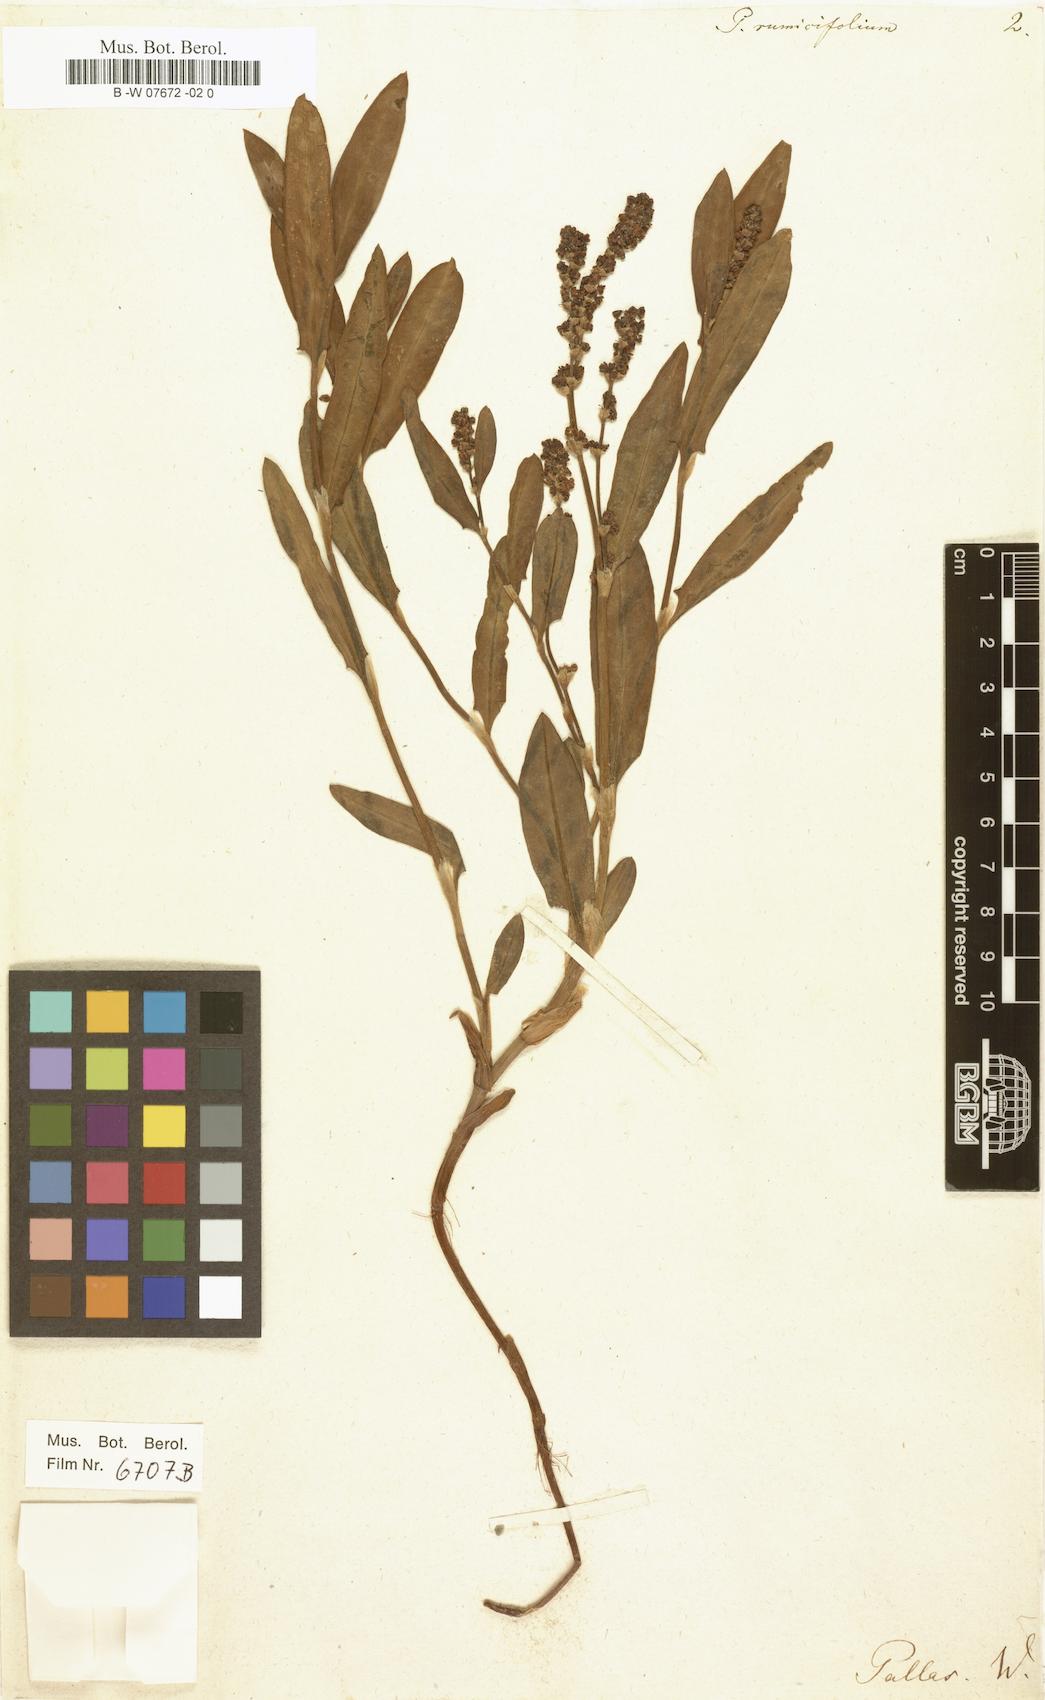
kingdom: Plantae
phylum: Tracheophyta
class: Magnoliopsida
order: Caryophyllales
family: Polygonaceae
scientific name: Polygonaceae
